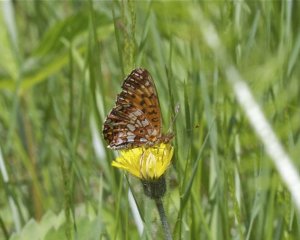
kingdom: Animalia
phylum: Arthropoda
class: Insecta
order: Lepidoptera
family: Nymphalidae
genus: Boloria
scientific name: Boloria selene
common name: Silver-bordered Fritillary
